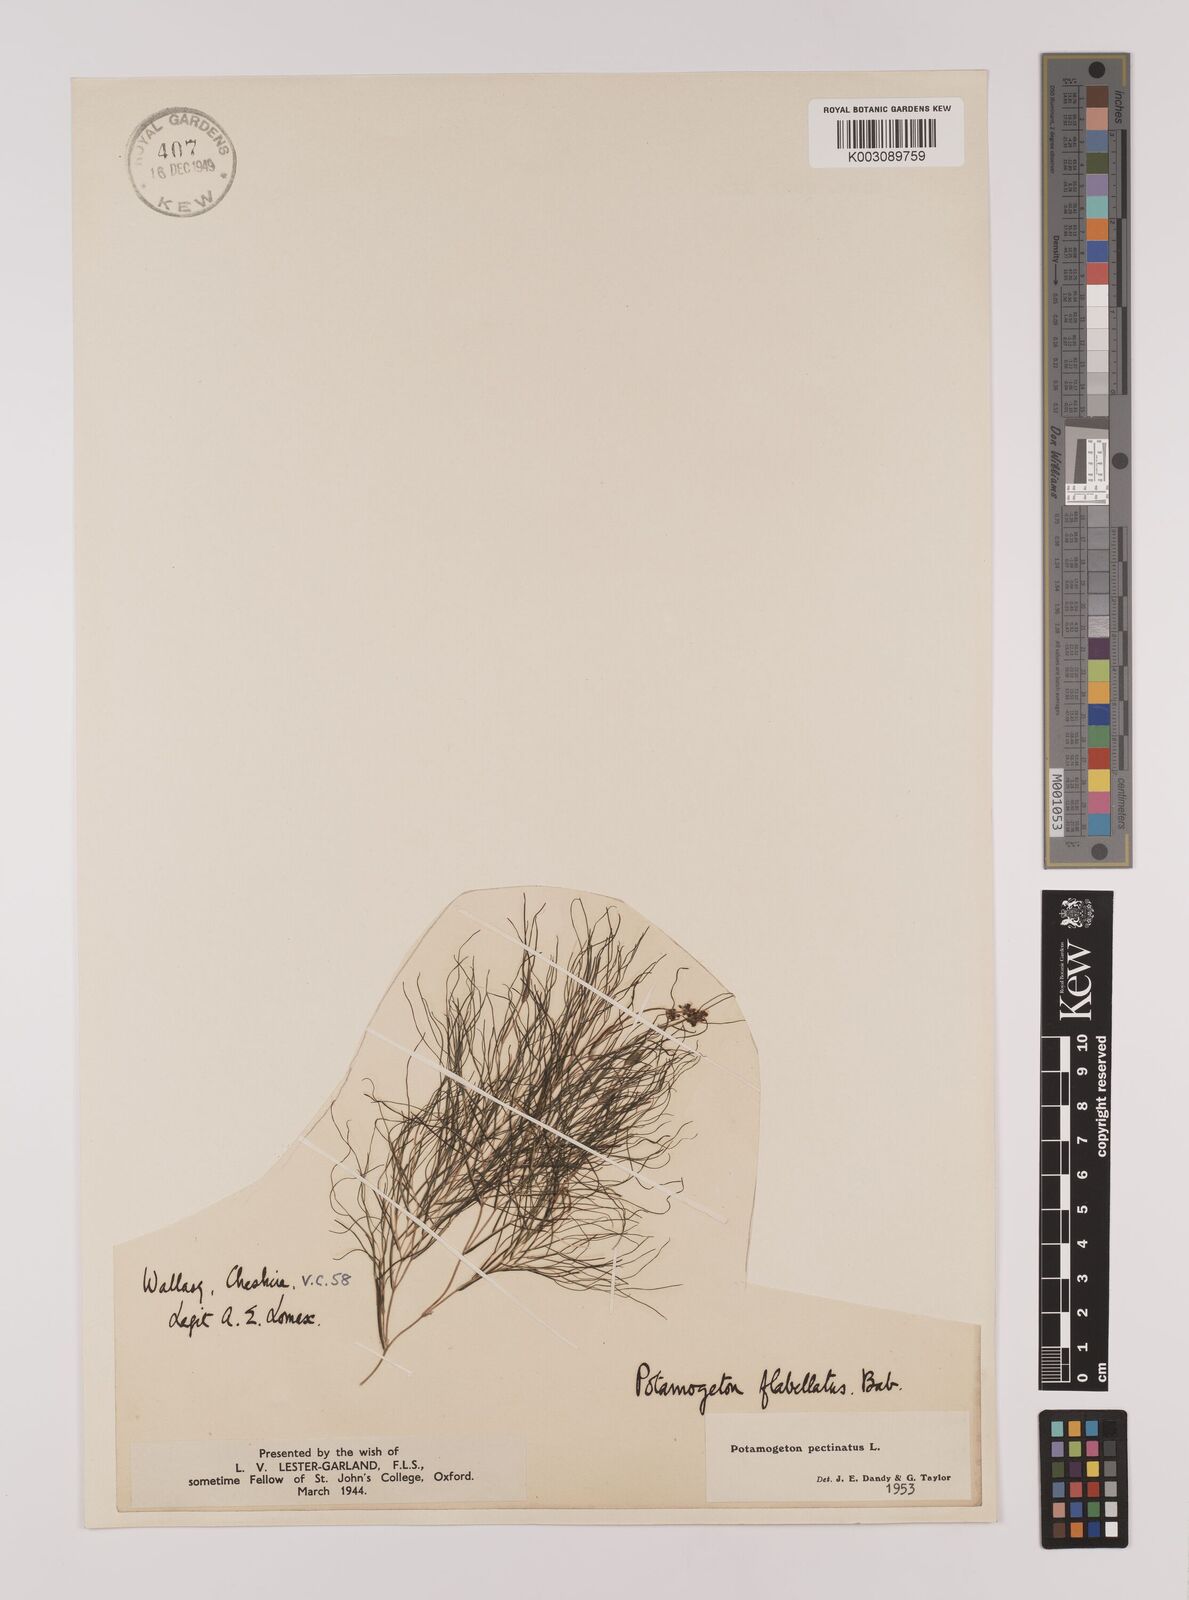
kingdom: Plantae
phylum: Tracheophyta
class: Liliopsida
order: Alismatales
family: Potamogetonaceae
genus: Stuckenia
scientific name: Stuckenia pectinata
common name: Sago pondweed
